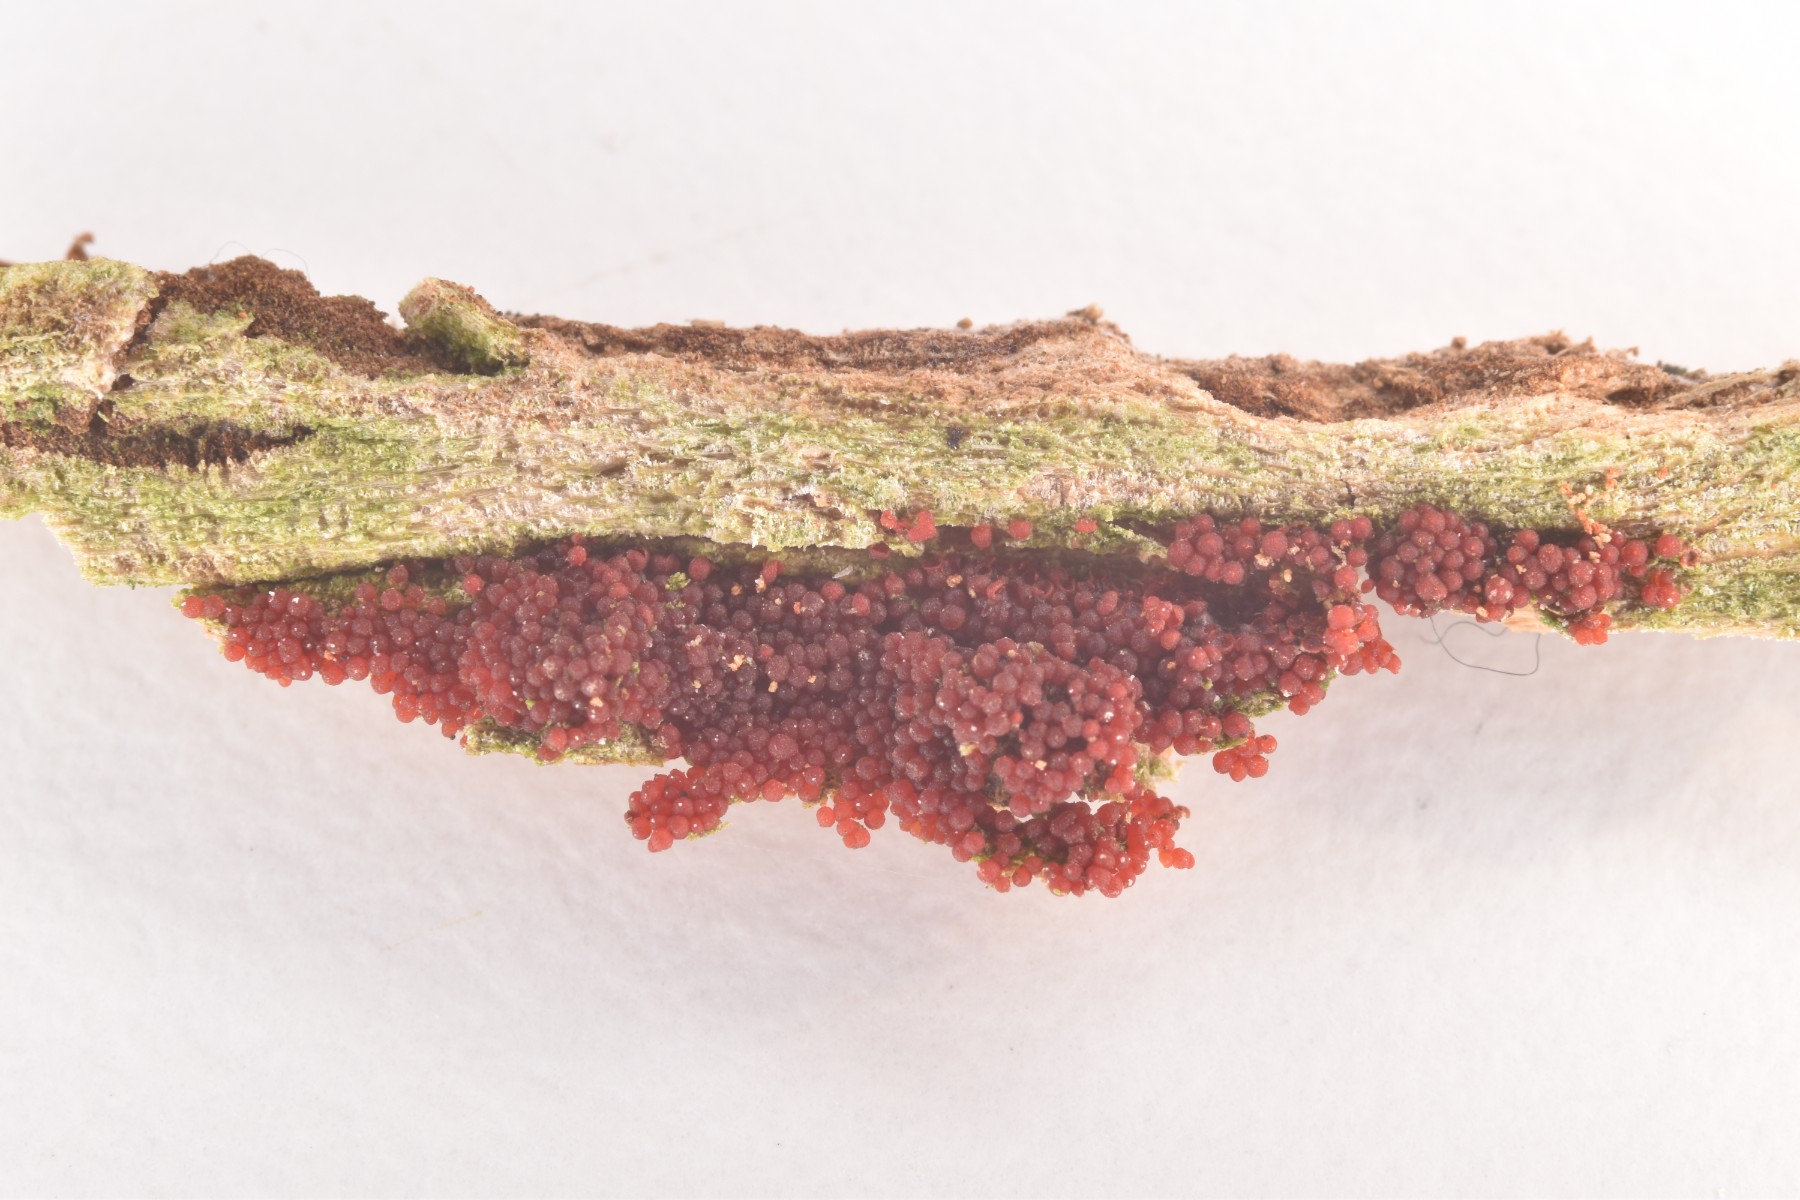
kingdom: Fungi
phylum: Ascomycota
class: Sordariomycetes
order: Hypocreales
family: Nectriaceae
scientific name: Nectriaceae
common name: cinnobersvampfamilien
